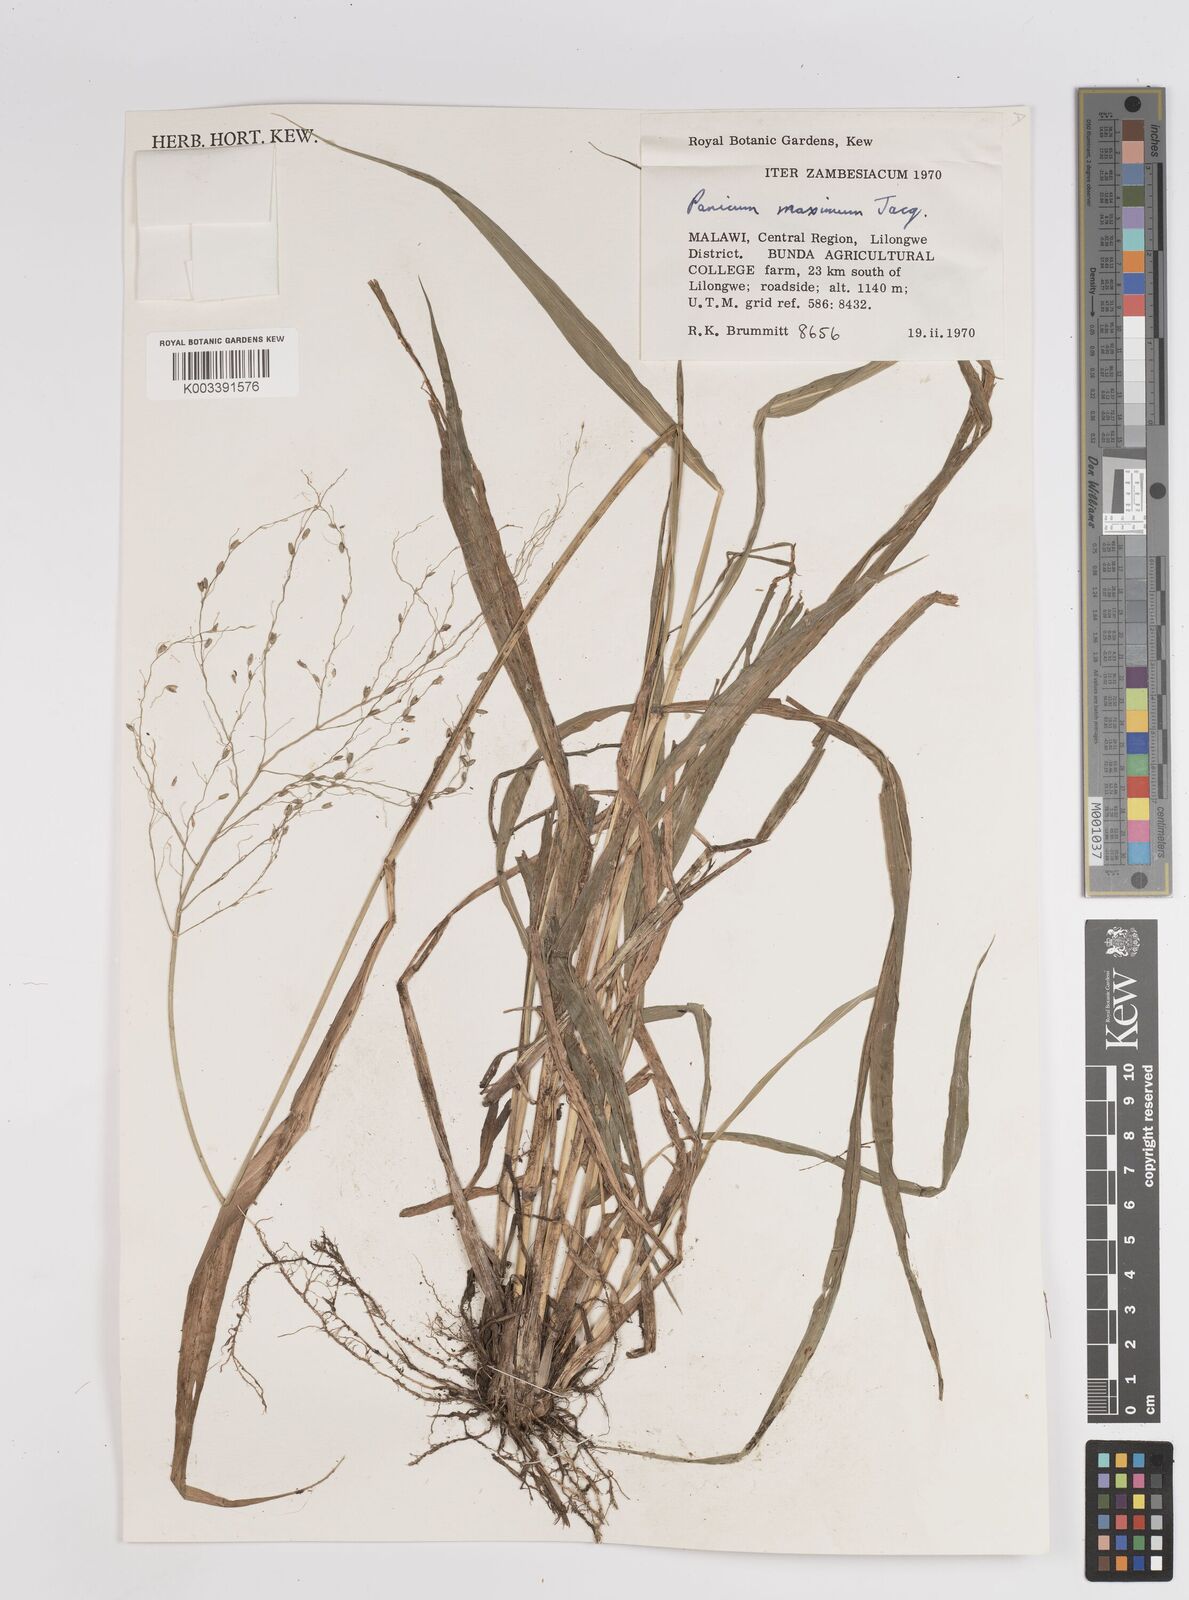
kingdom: Plantae
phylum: Tracheophyta
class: Liliopsida
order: Poales
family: Poaceae
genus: Megathyrsus
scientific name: Megathyrsus maximus
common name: Guineagrass
